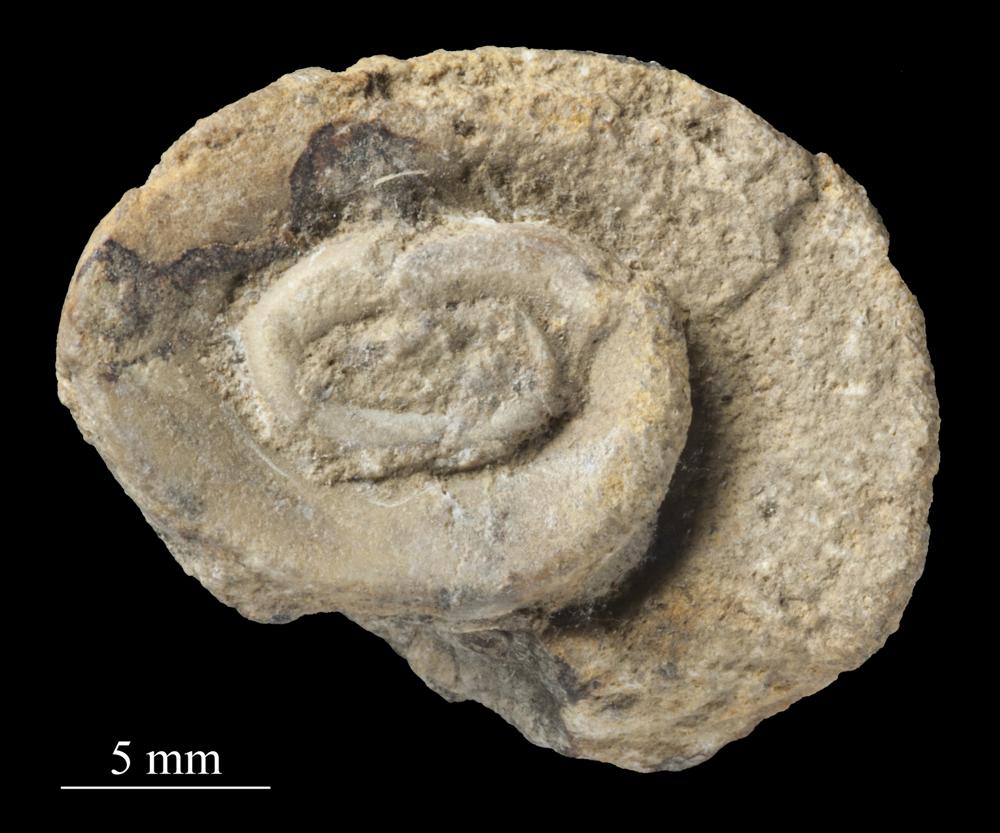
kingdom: Animalia
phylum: Mollusca
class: Gastropoda
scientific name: Gastropoda
